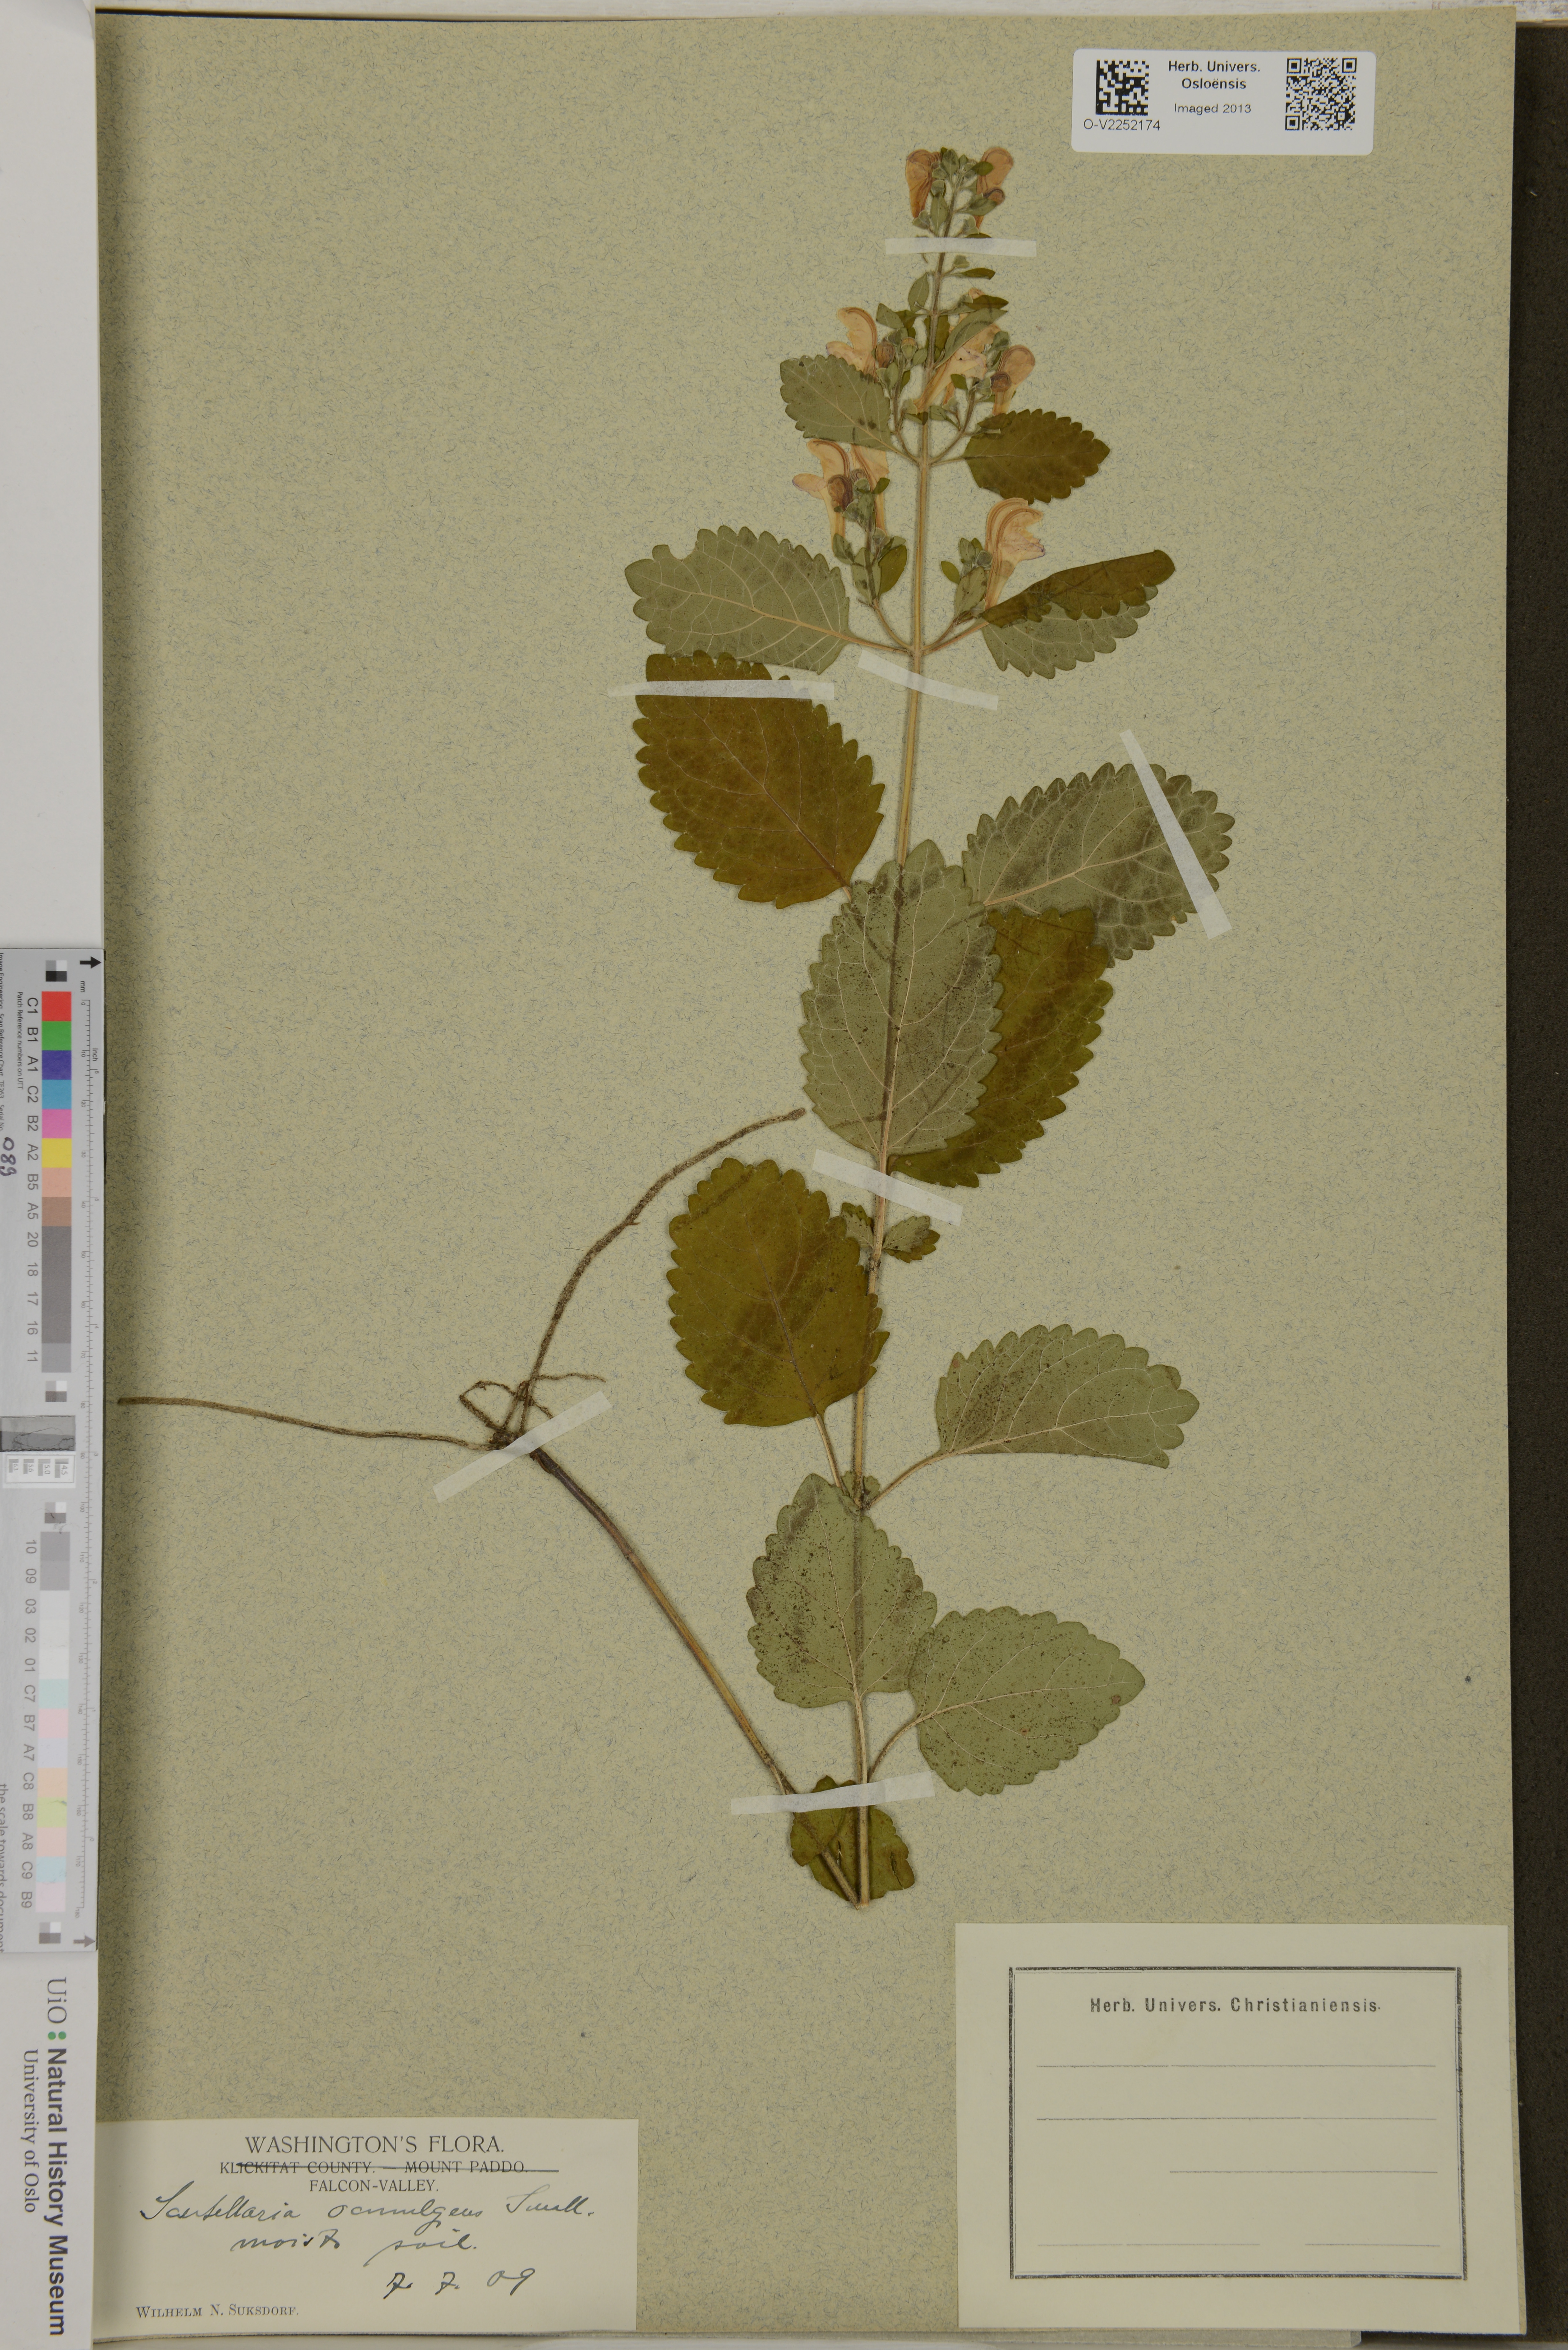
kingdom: Plantae
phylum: Tracheophyta
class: Magnoliopsida
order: Lamiales
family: Lamiaceae
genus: Scutellaria
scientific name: Scutellaria ocmulgee
